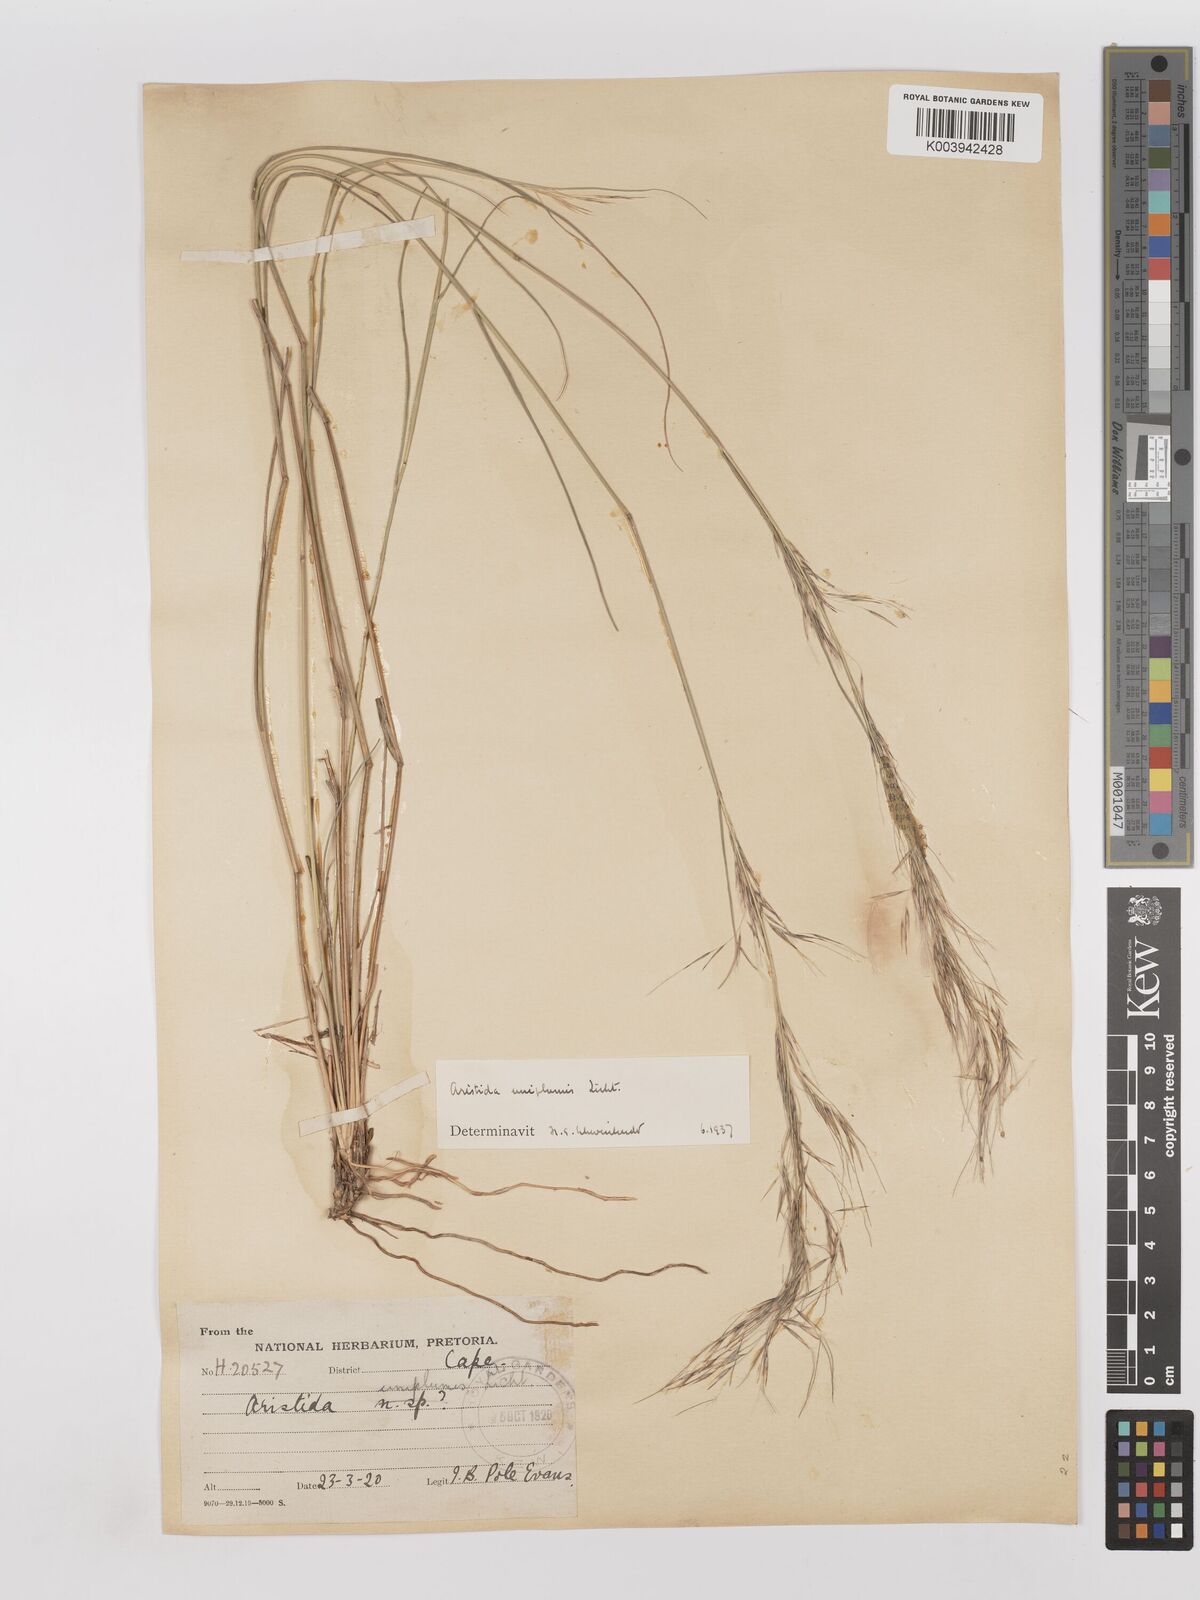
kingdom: Plantae
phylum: Tracheophyta
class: Liliopsida
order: Poales
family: Poaceae
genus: Stipagrostis
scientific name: Stipagrostis uniplumis
